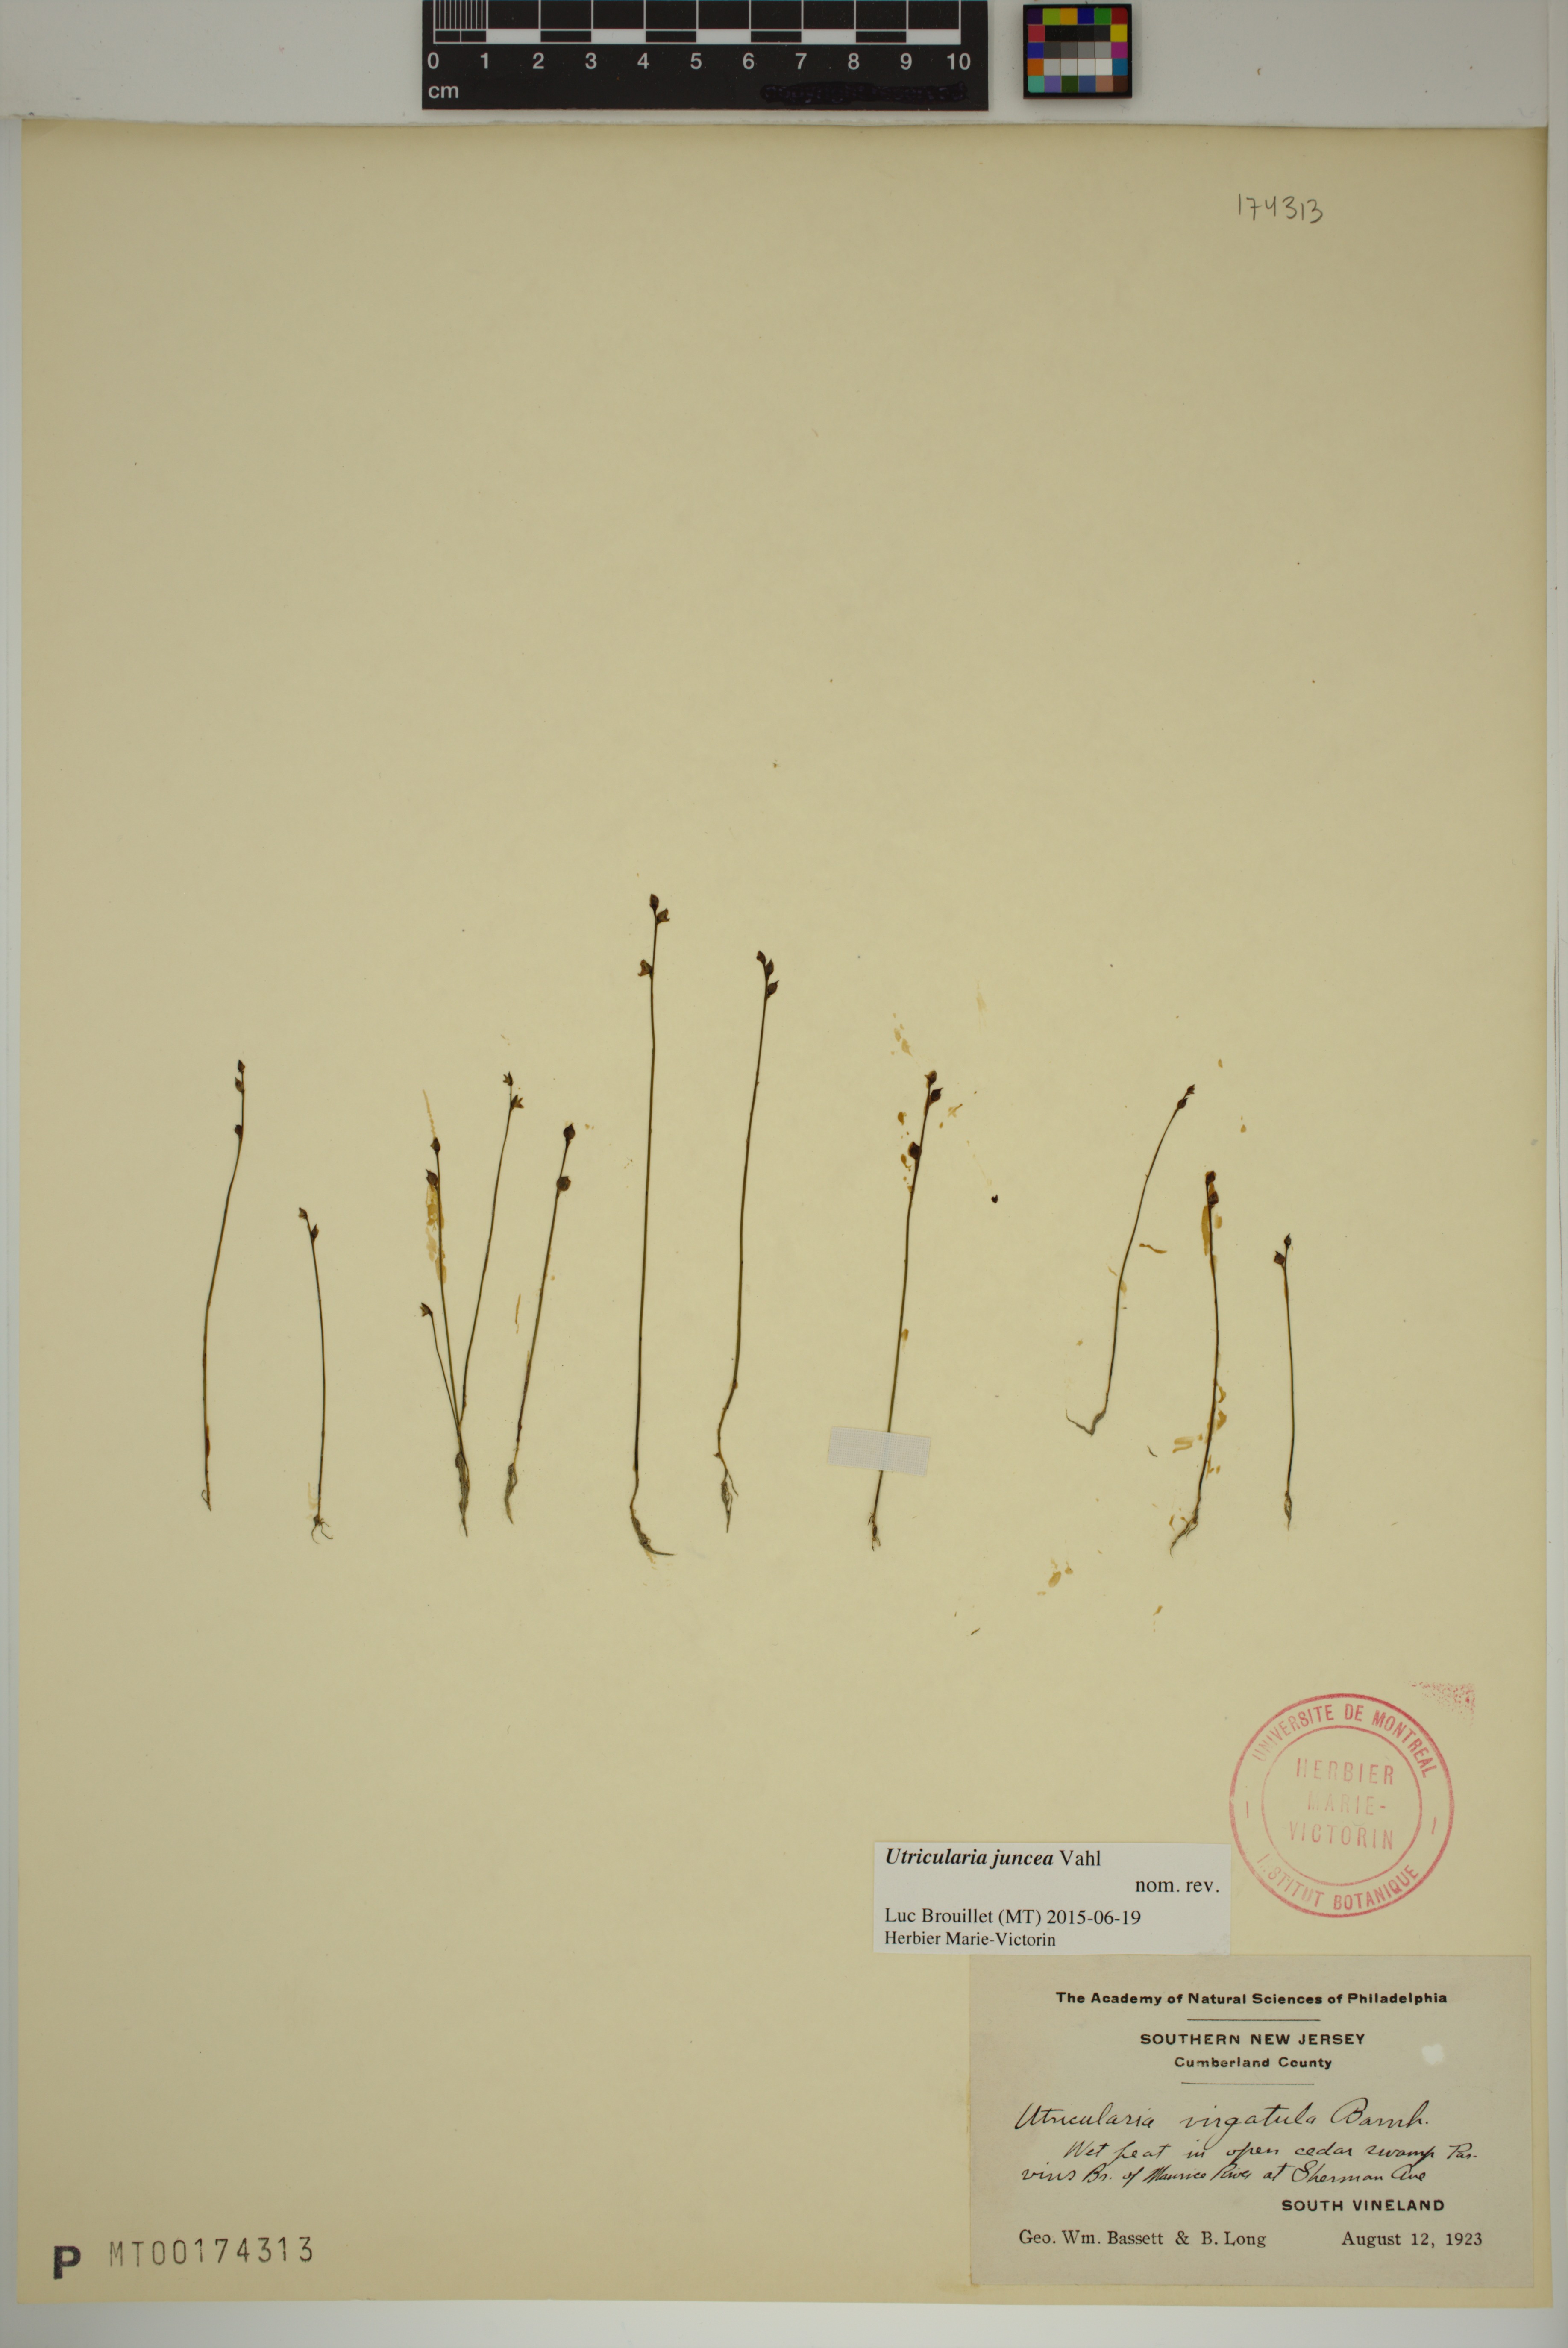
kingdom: Plantae
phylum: Tracheophyta
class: Magnoliopsida
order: Lamiales
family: Lentibulariaceae
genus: Utricularia
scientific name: Utricularia juncea
